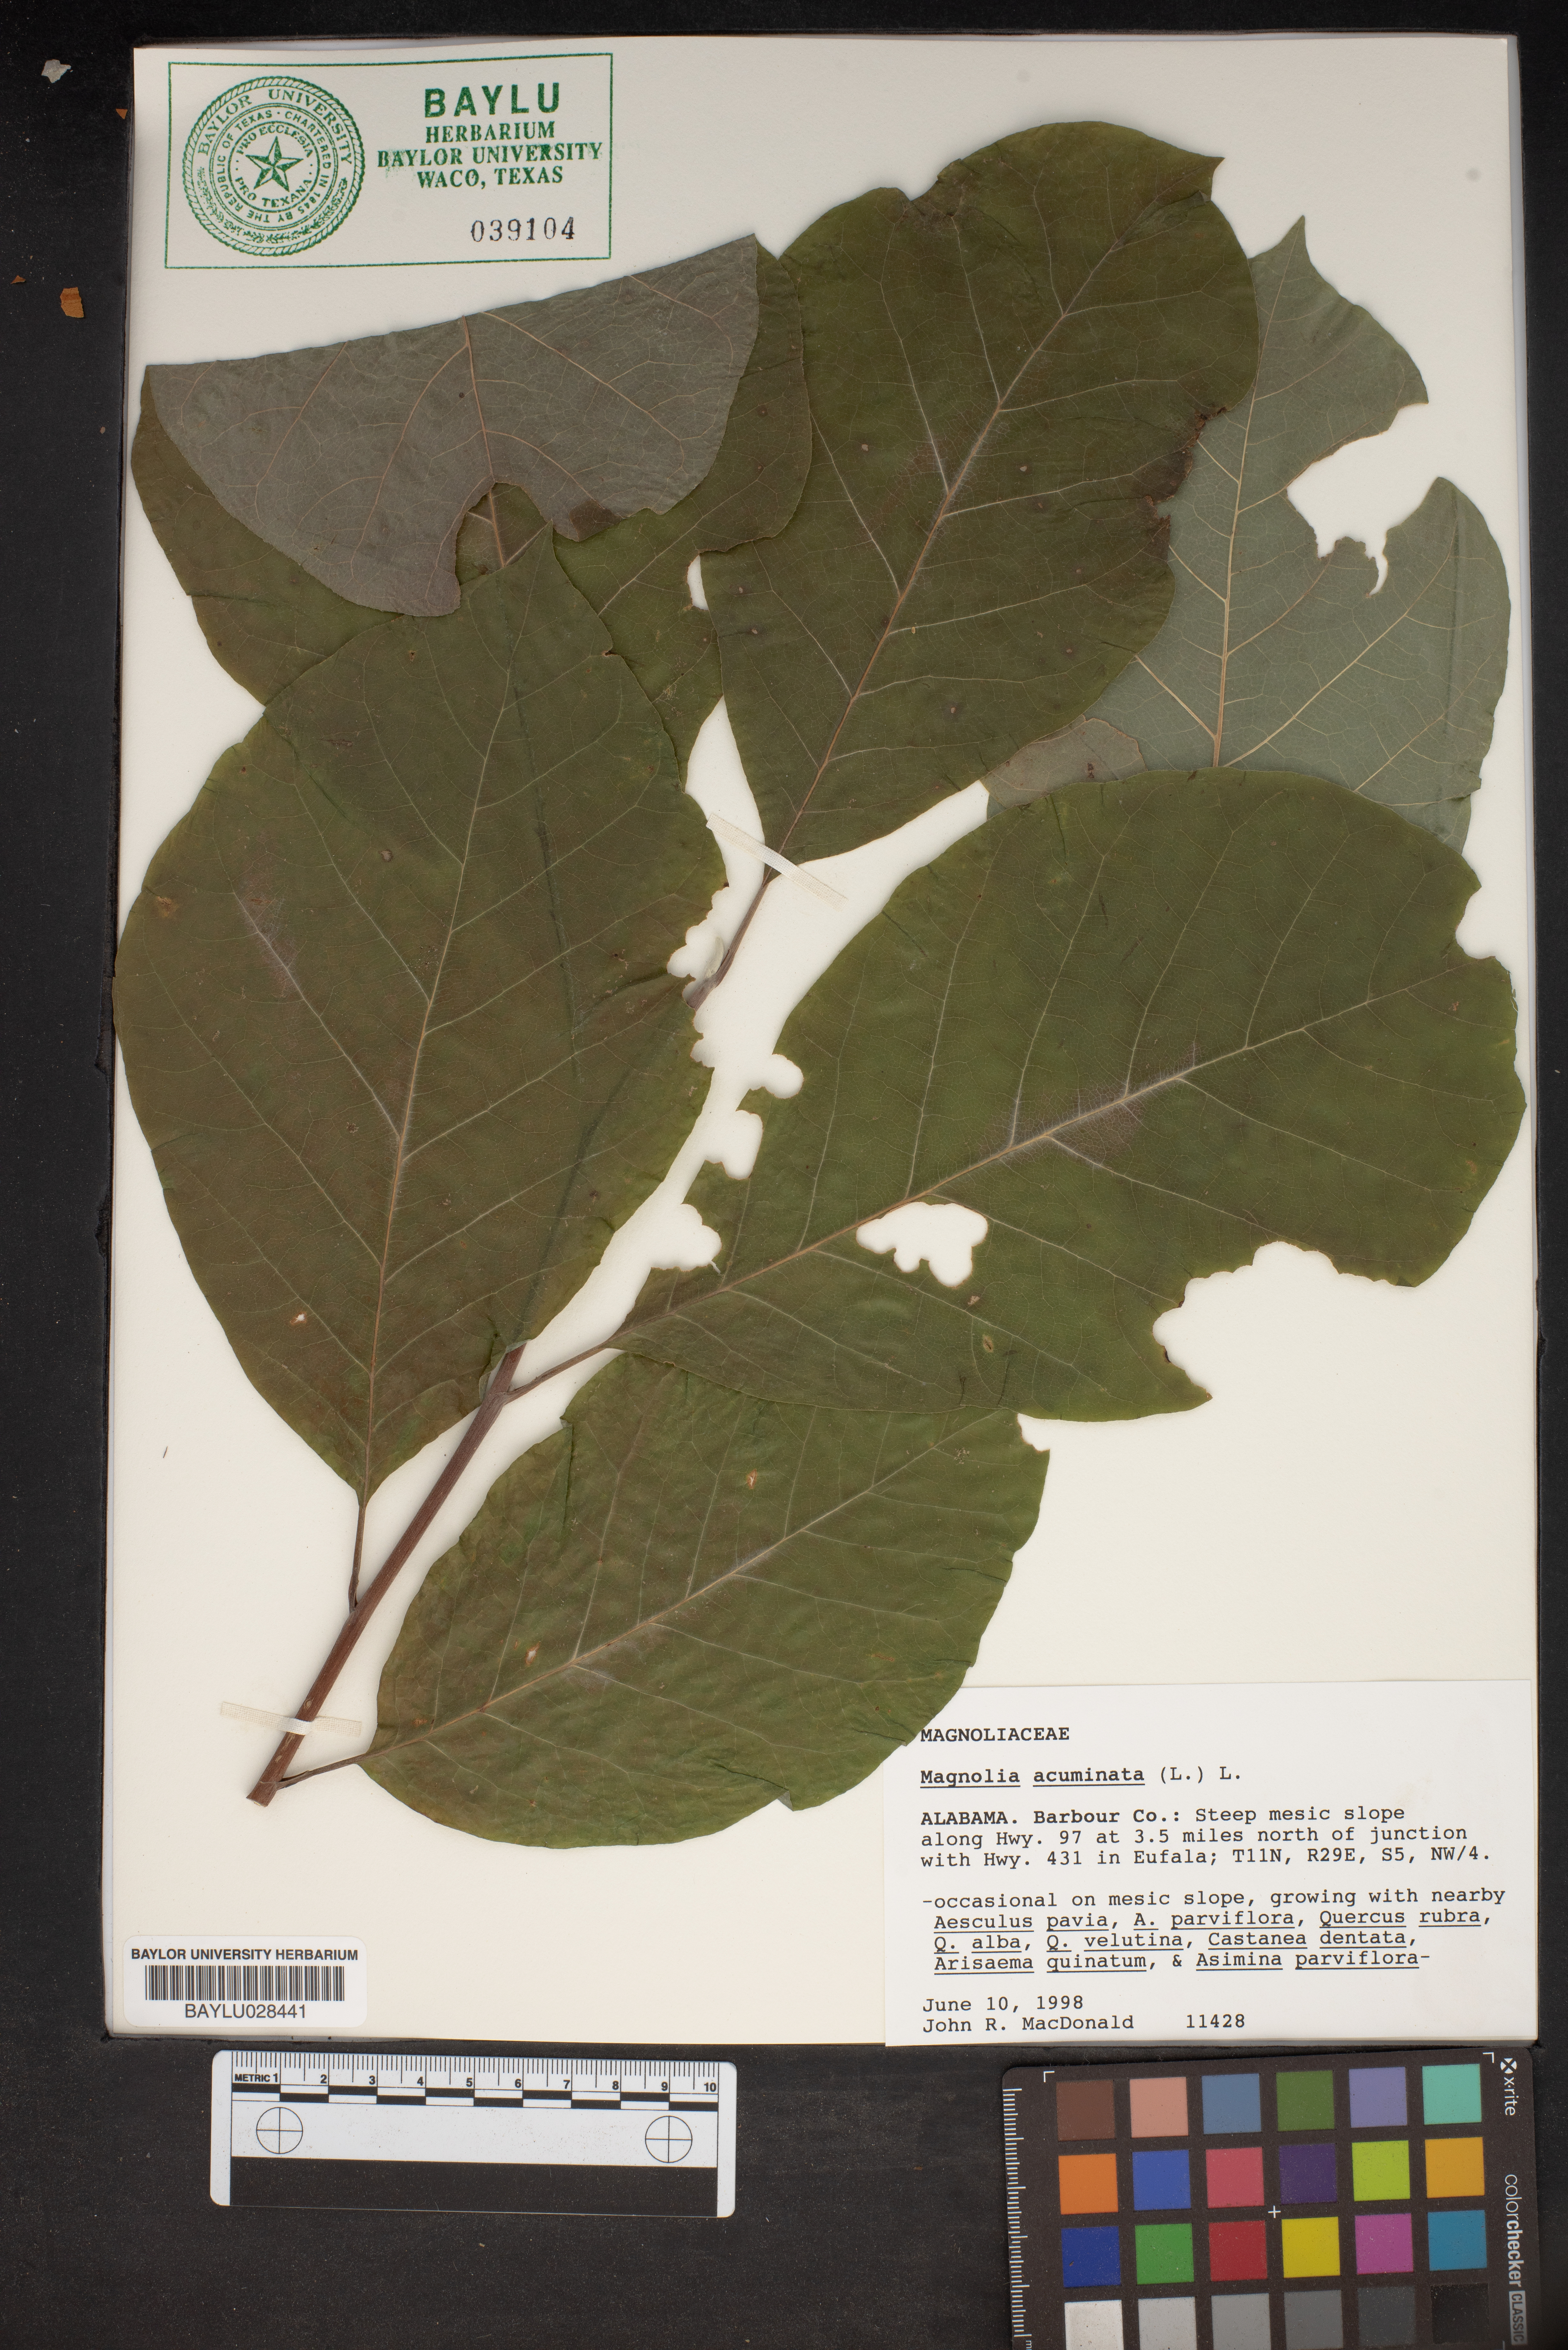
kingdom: Plantae
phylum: Tracheophyta
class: Magnoliopsida
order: Magnoliales
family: Magnoliaceae
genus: Magnolia
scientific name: Magnolia acuminata
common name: Cucumber magnolia
